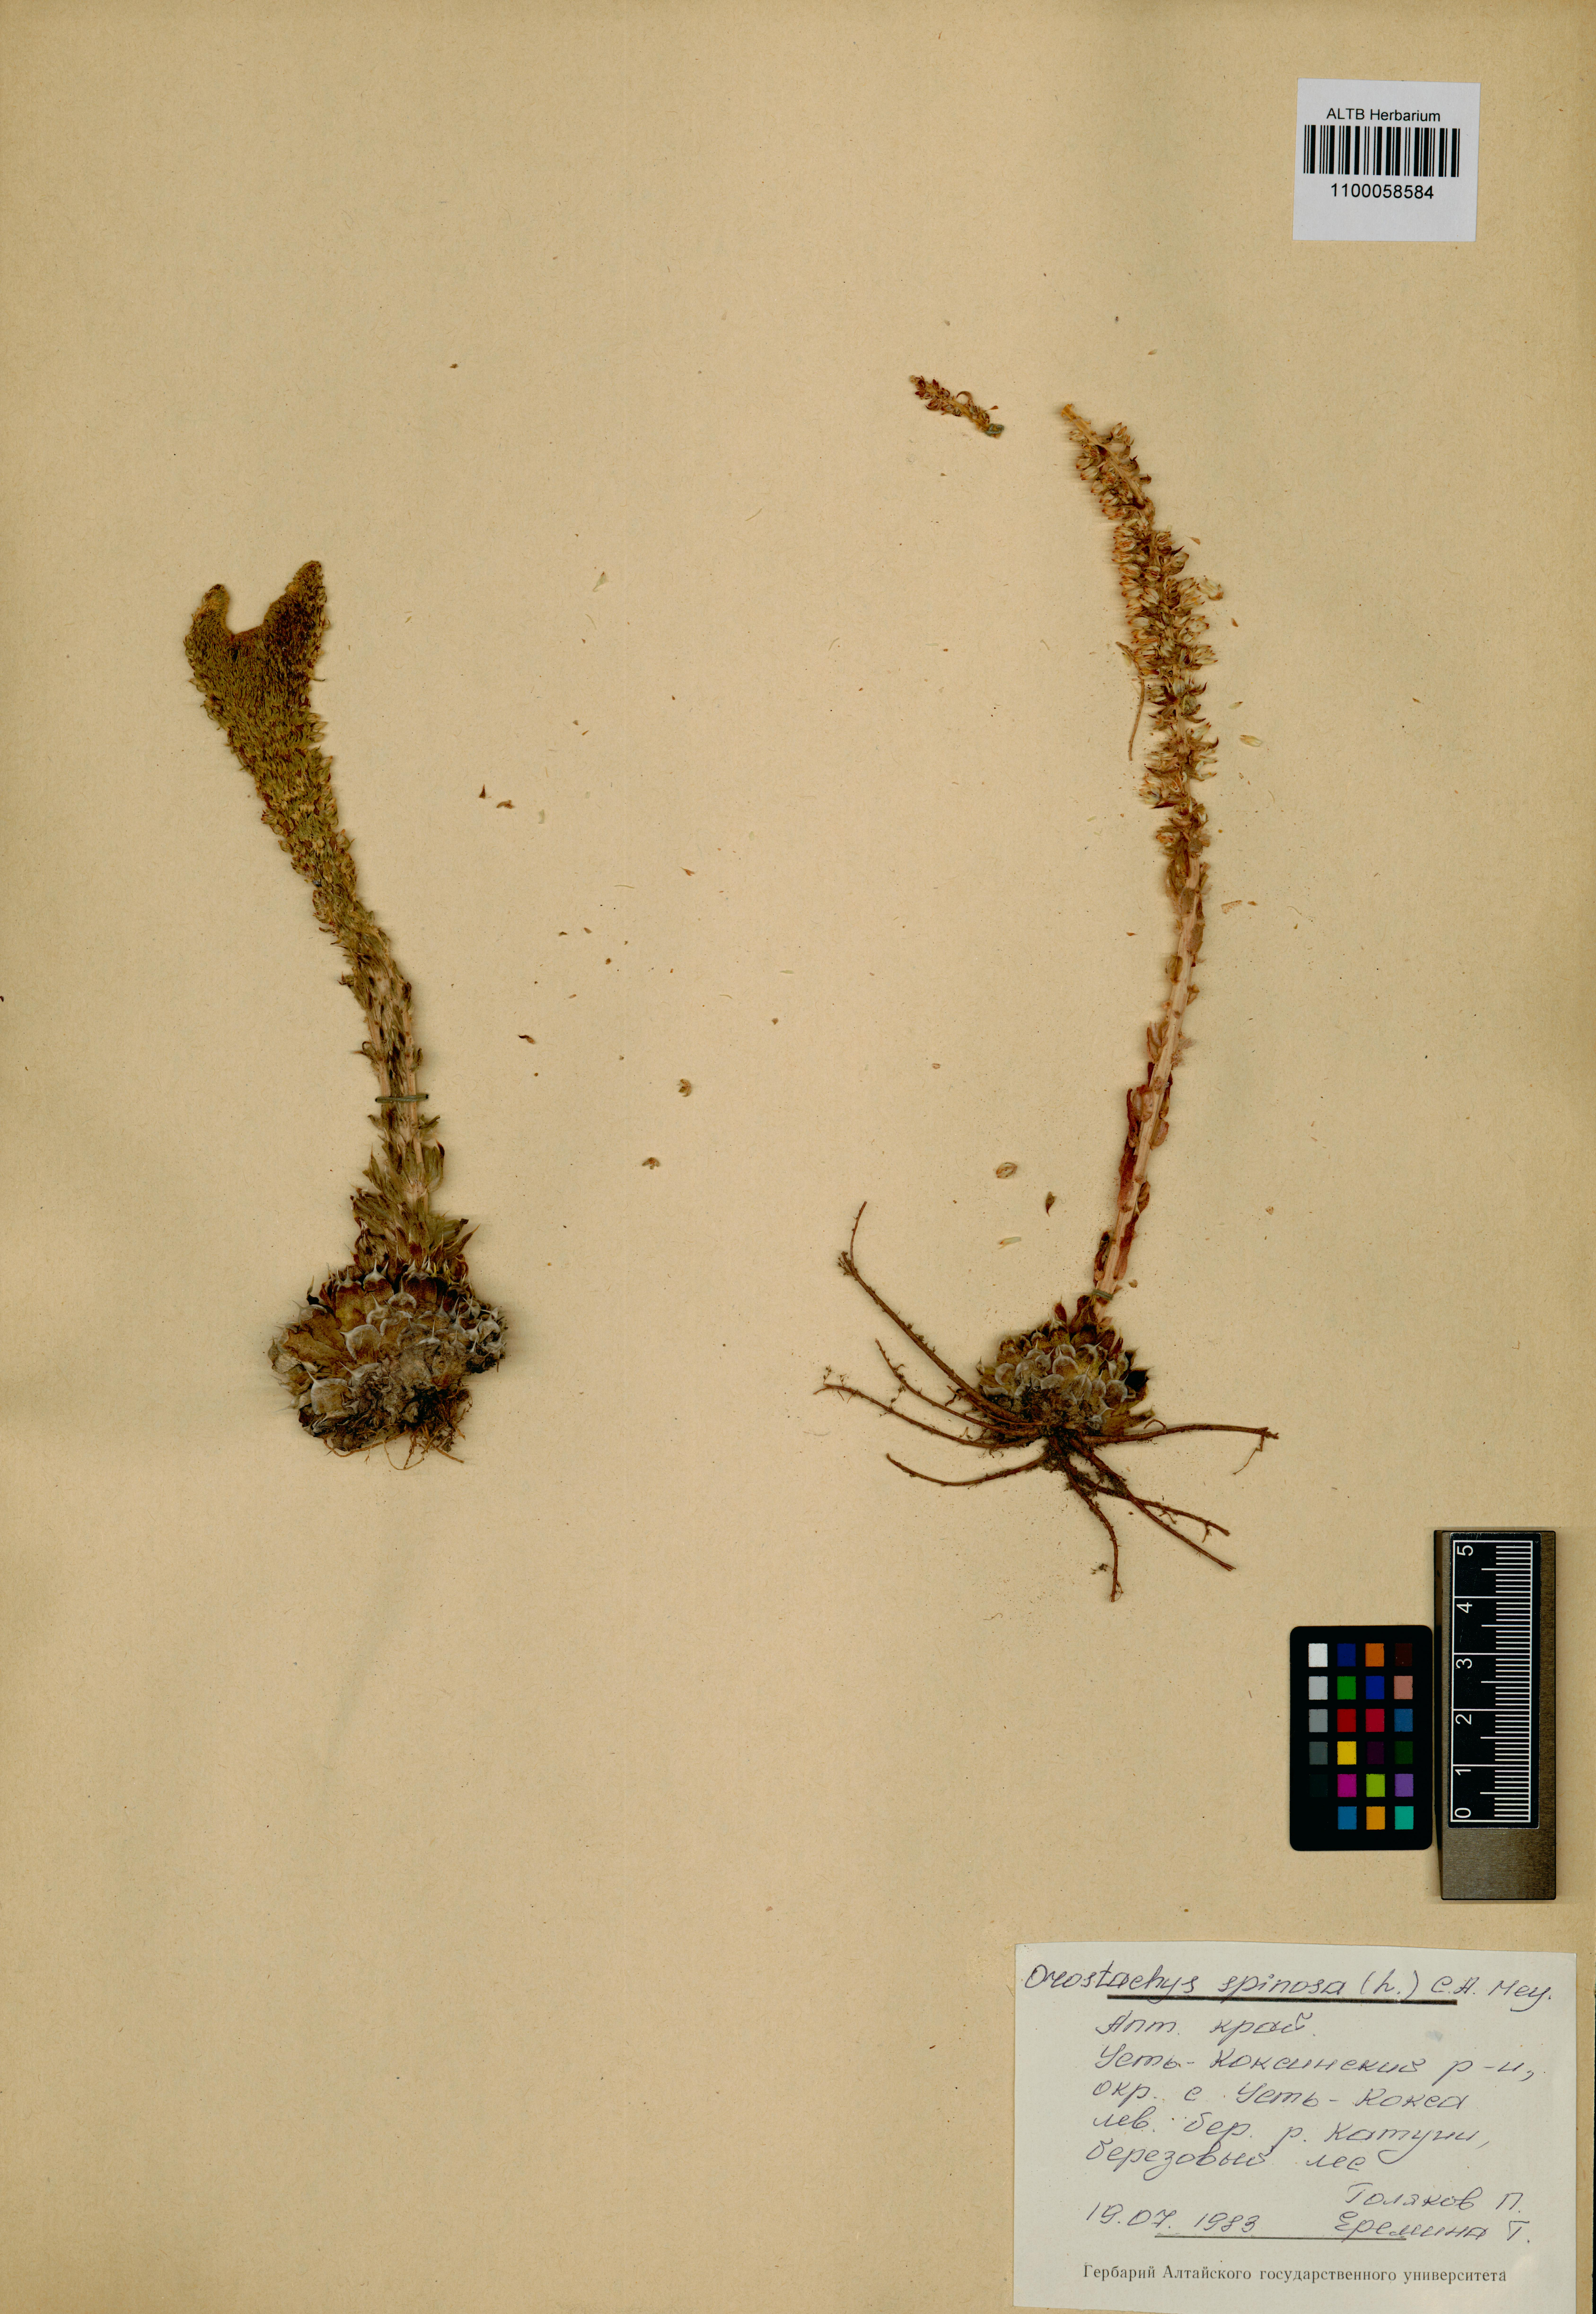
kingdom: Plantae
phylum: Tracheophyta
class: Magnoliopsida
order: Saxifragales
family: Crassulaceae
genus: Orostachys
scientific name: Orostachys spinosa
